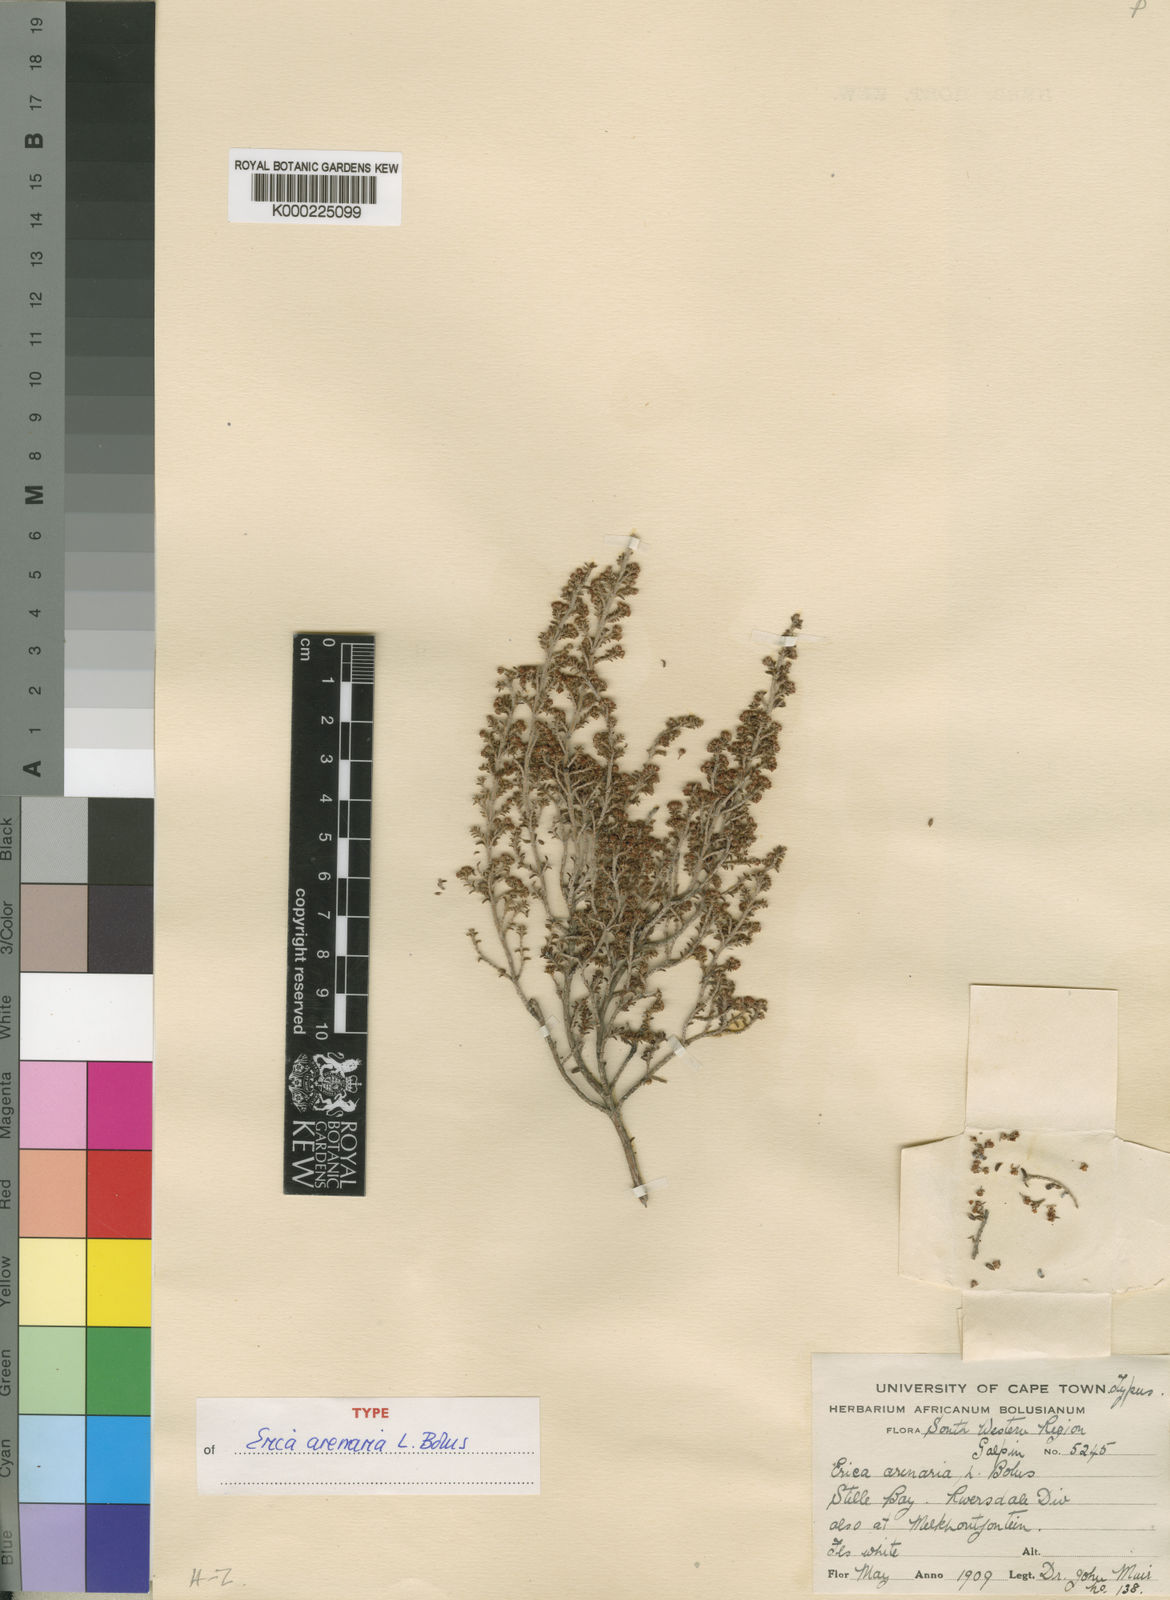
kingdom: Plantae
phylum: Tracheophyta
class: Magnoliopsida
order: Ericales
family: Ericaceae
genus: Erica
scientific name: Erica arenaria
